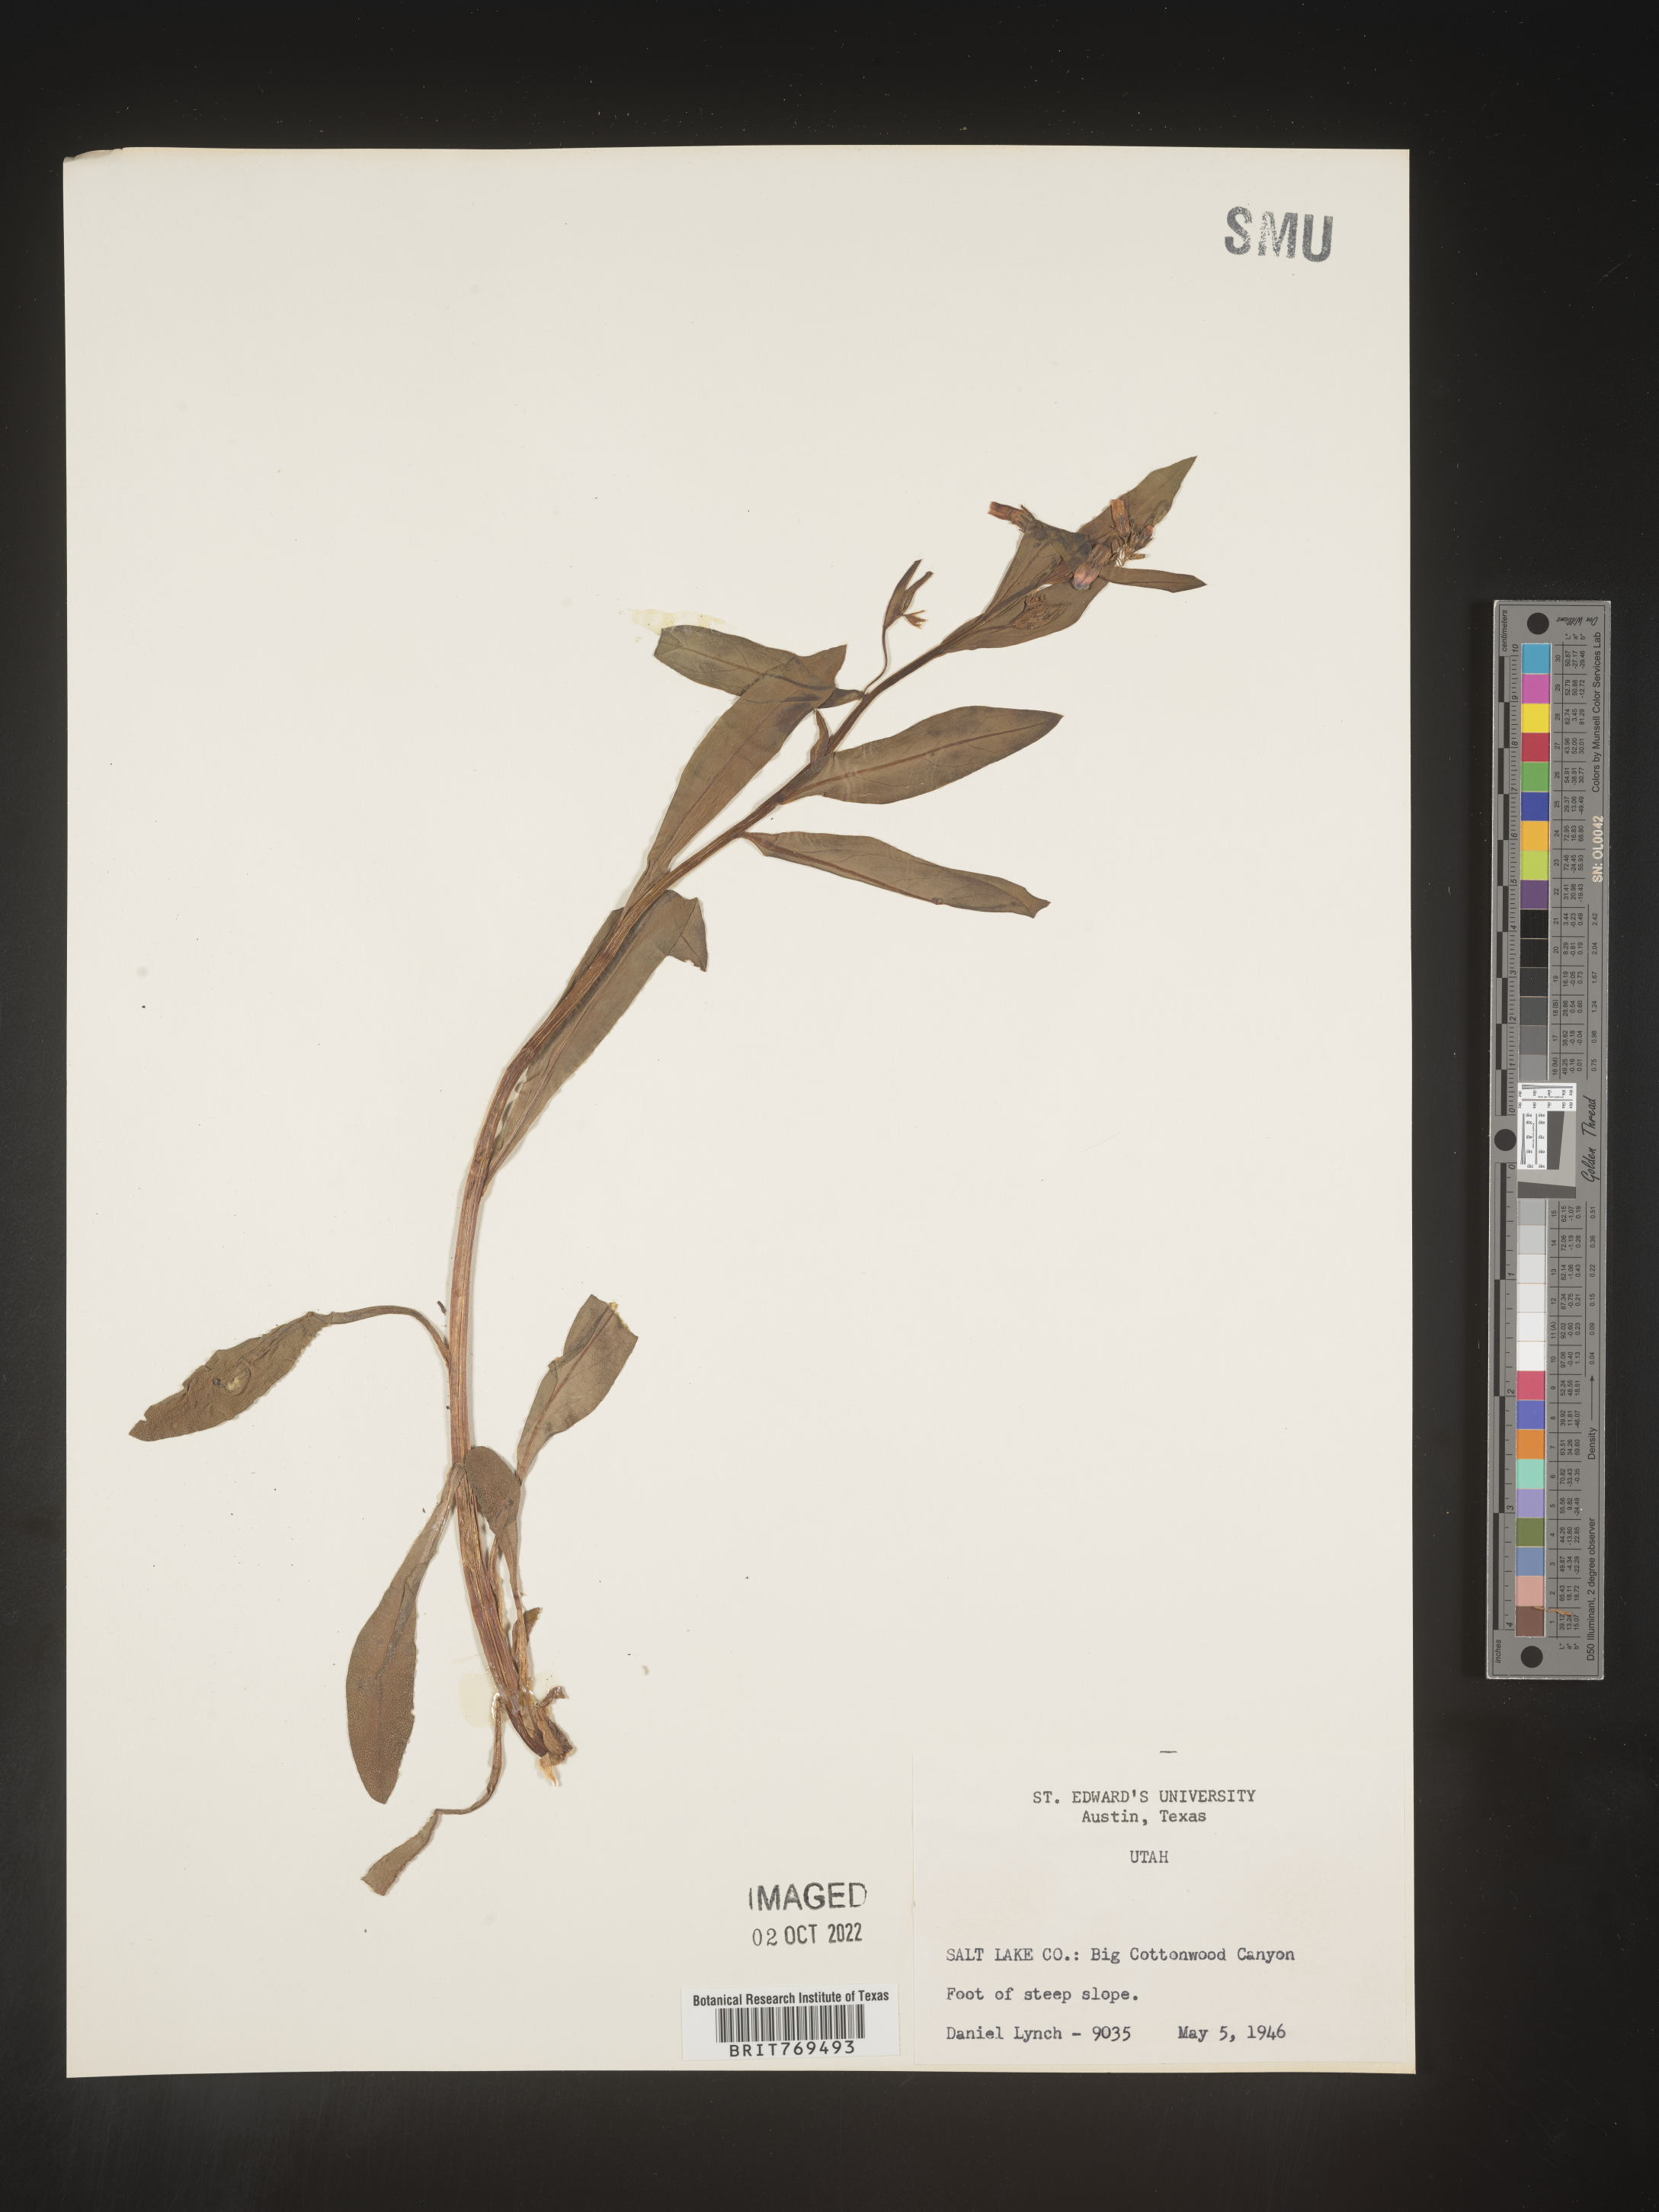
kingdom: Plantae
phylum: Tracheophyta
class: Magnoliopsida
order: Boraginales
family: Boraginaceae
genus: Mertensia
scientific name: Mertensia viridis
